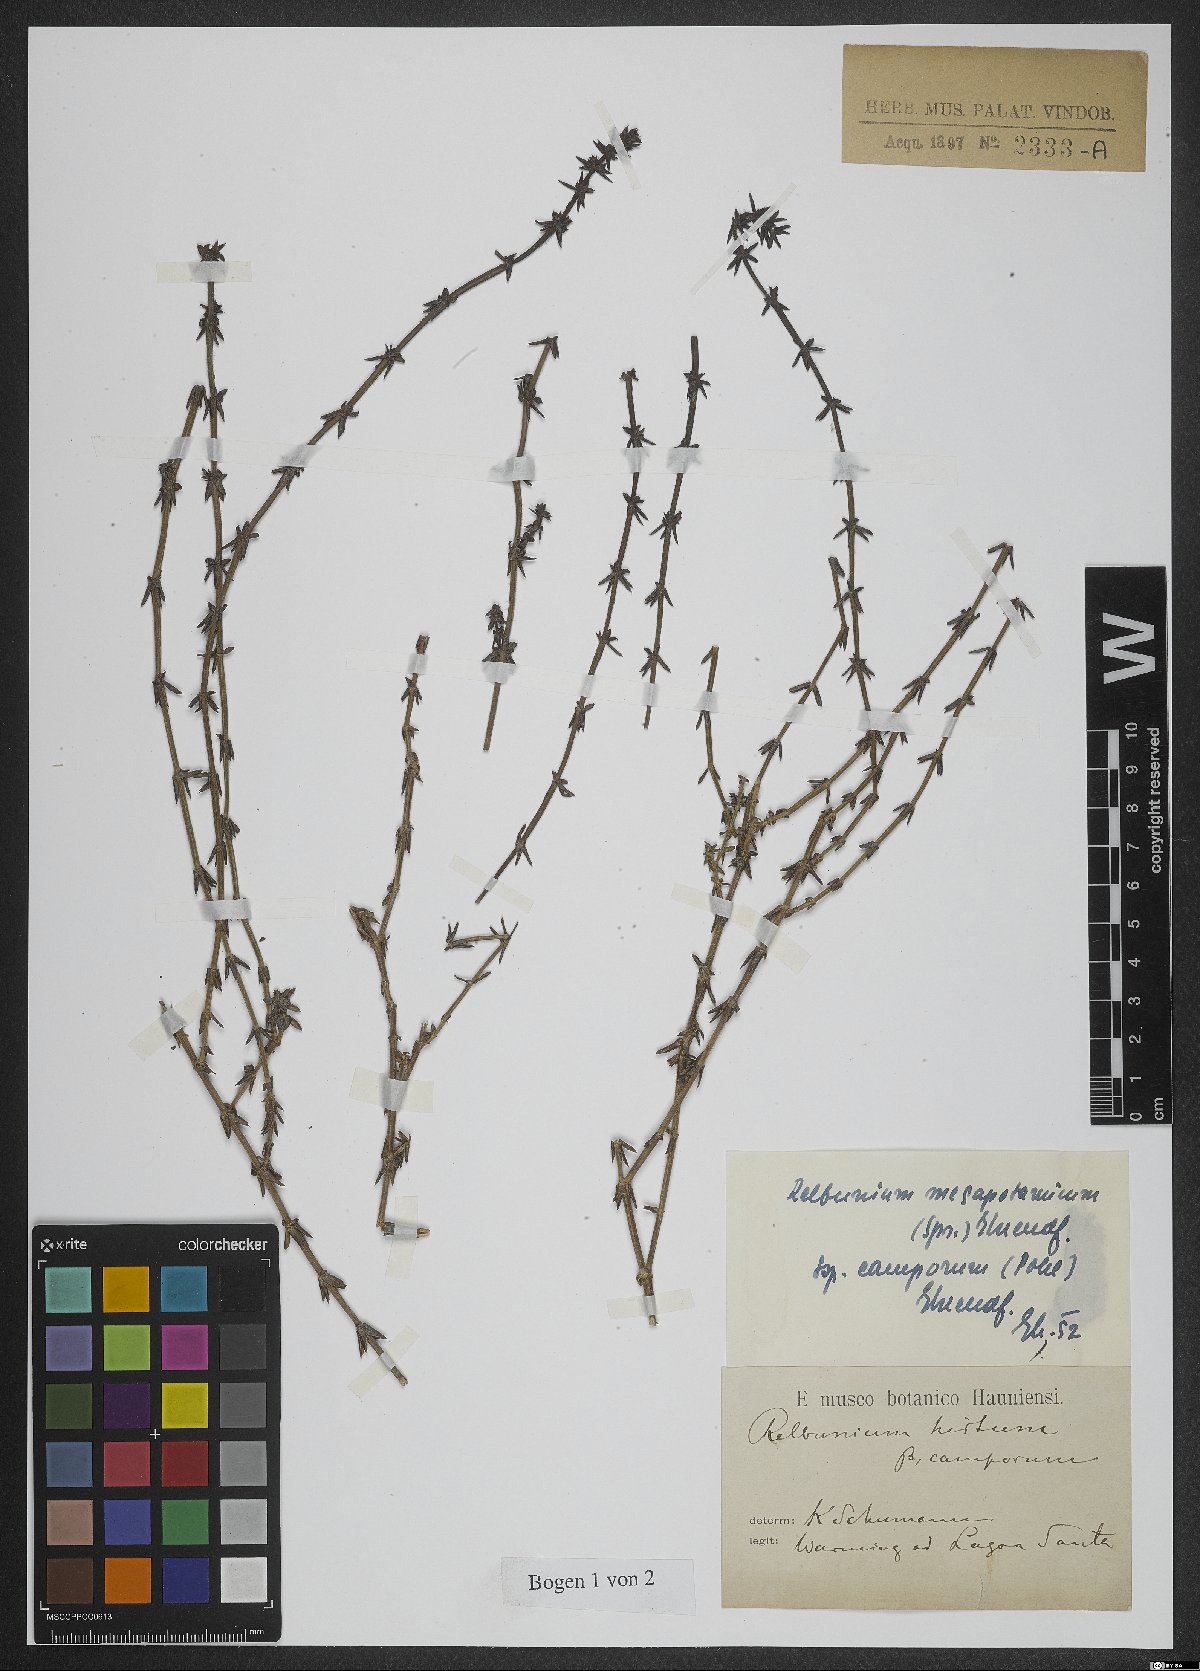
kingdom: Plantae
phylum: Tracheophyta
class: Magnoliopsida
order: Gentianales
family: Rubiaceae
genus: Galium
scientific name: Galium megapotamicum
